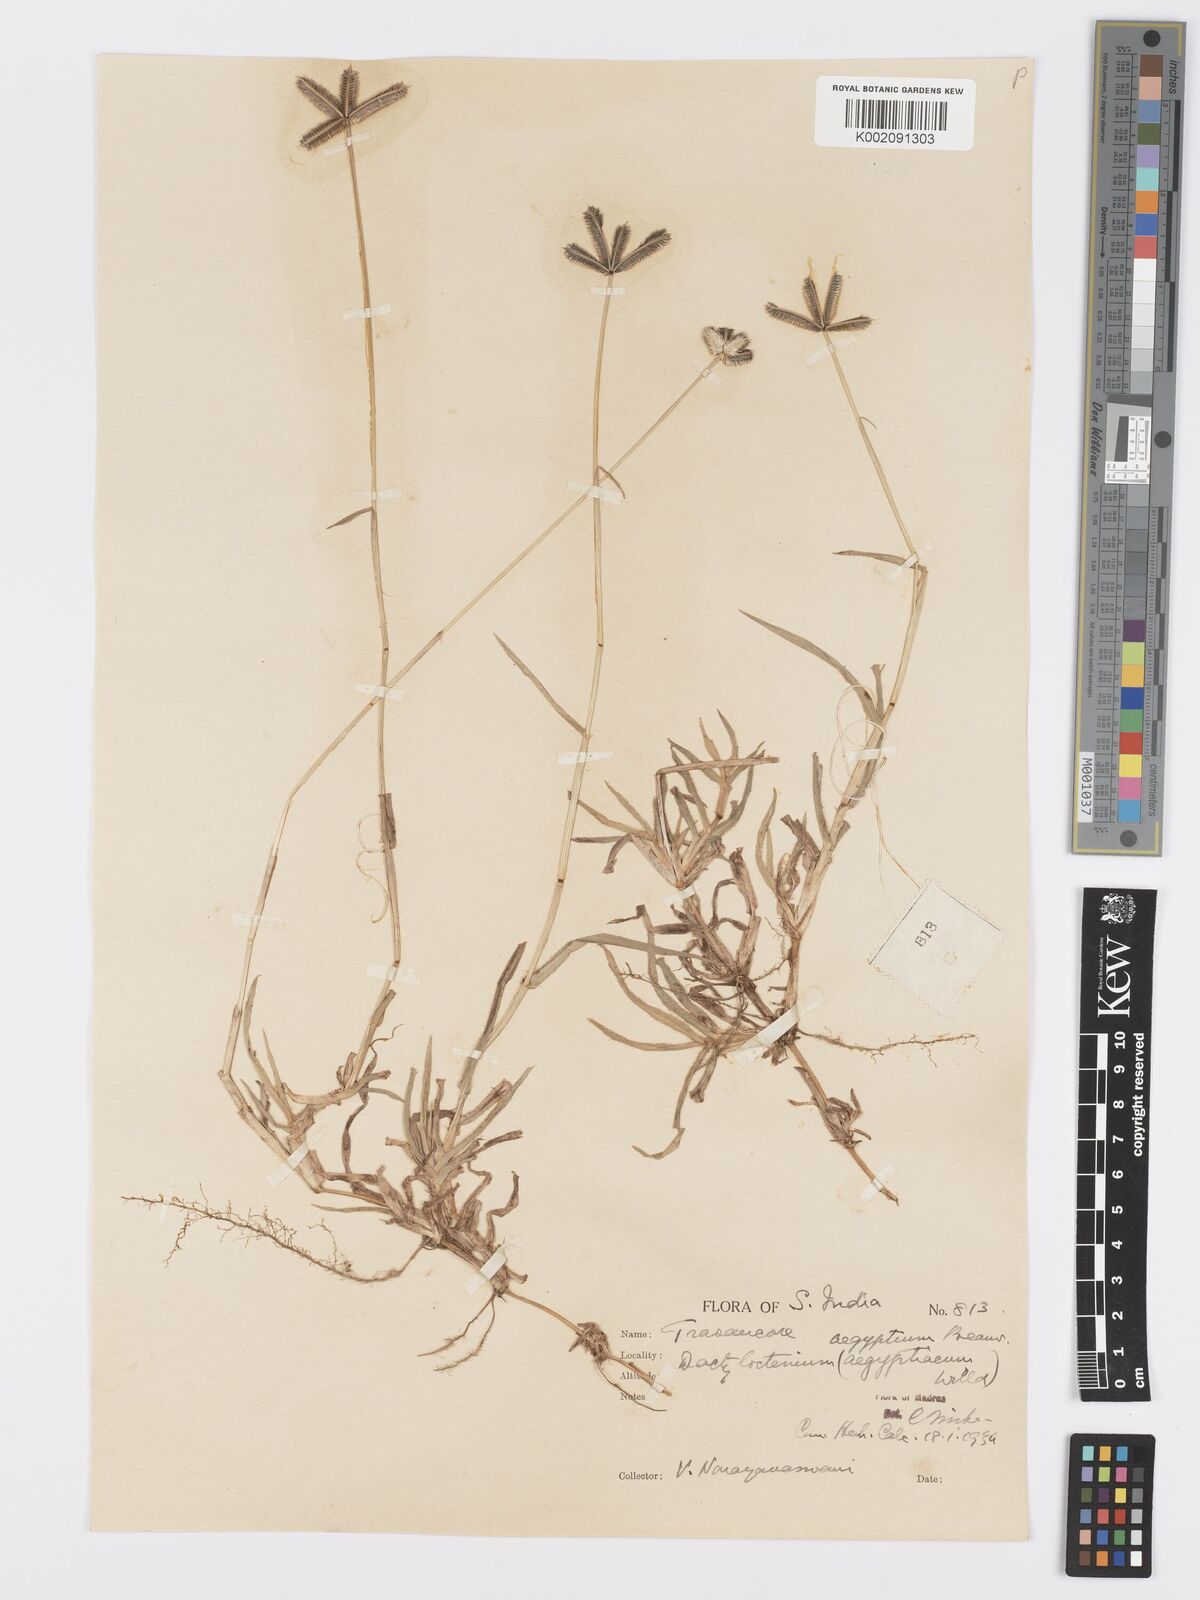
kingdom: Plantae
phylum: Tracheophyta
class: Liliopsida
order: Poales
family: Poaceae
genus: Dactyloctenium
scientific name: Dactyloctenium aegyptium
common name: Egyptian grass
